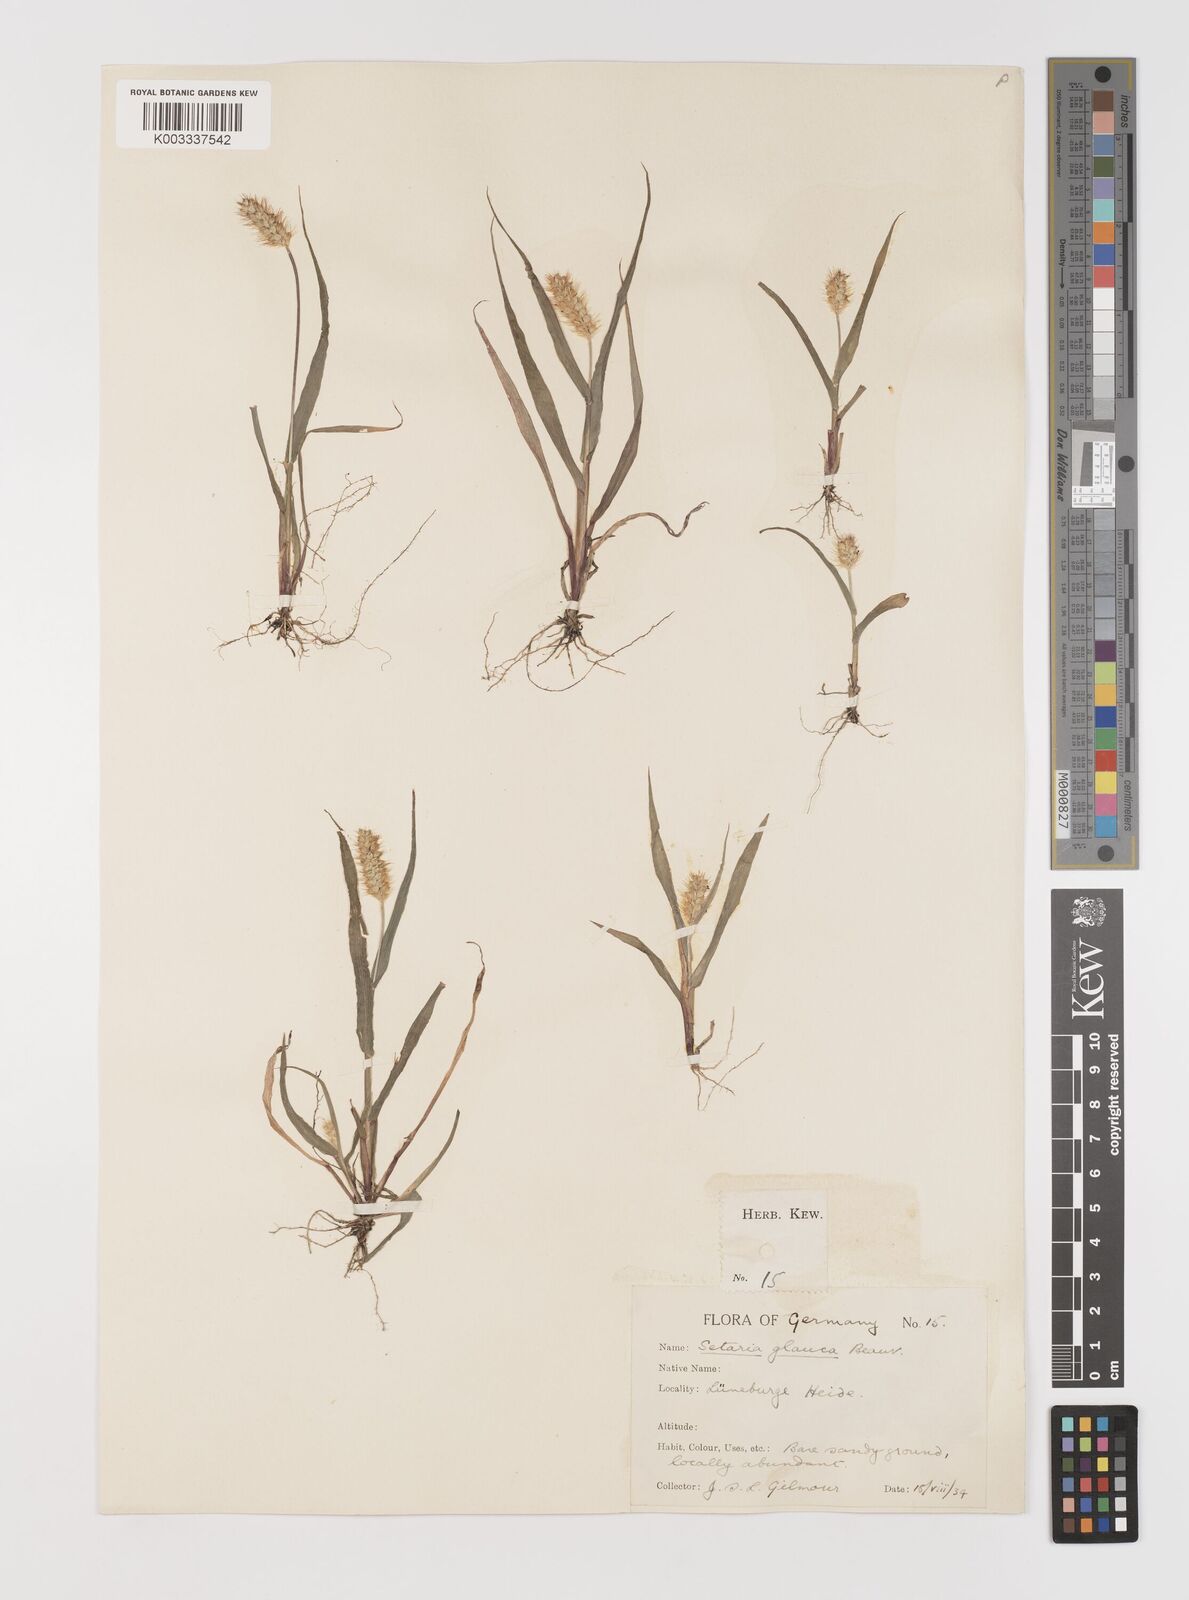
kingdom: Plantae
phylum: Tracheophyta
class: Liliopsida
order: Poales
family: Poaceae
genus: Setaria
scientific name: Setaria pumila
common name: Yellow bristle-grass
